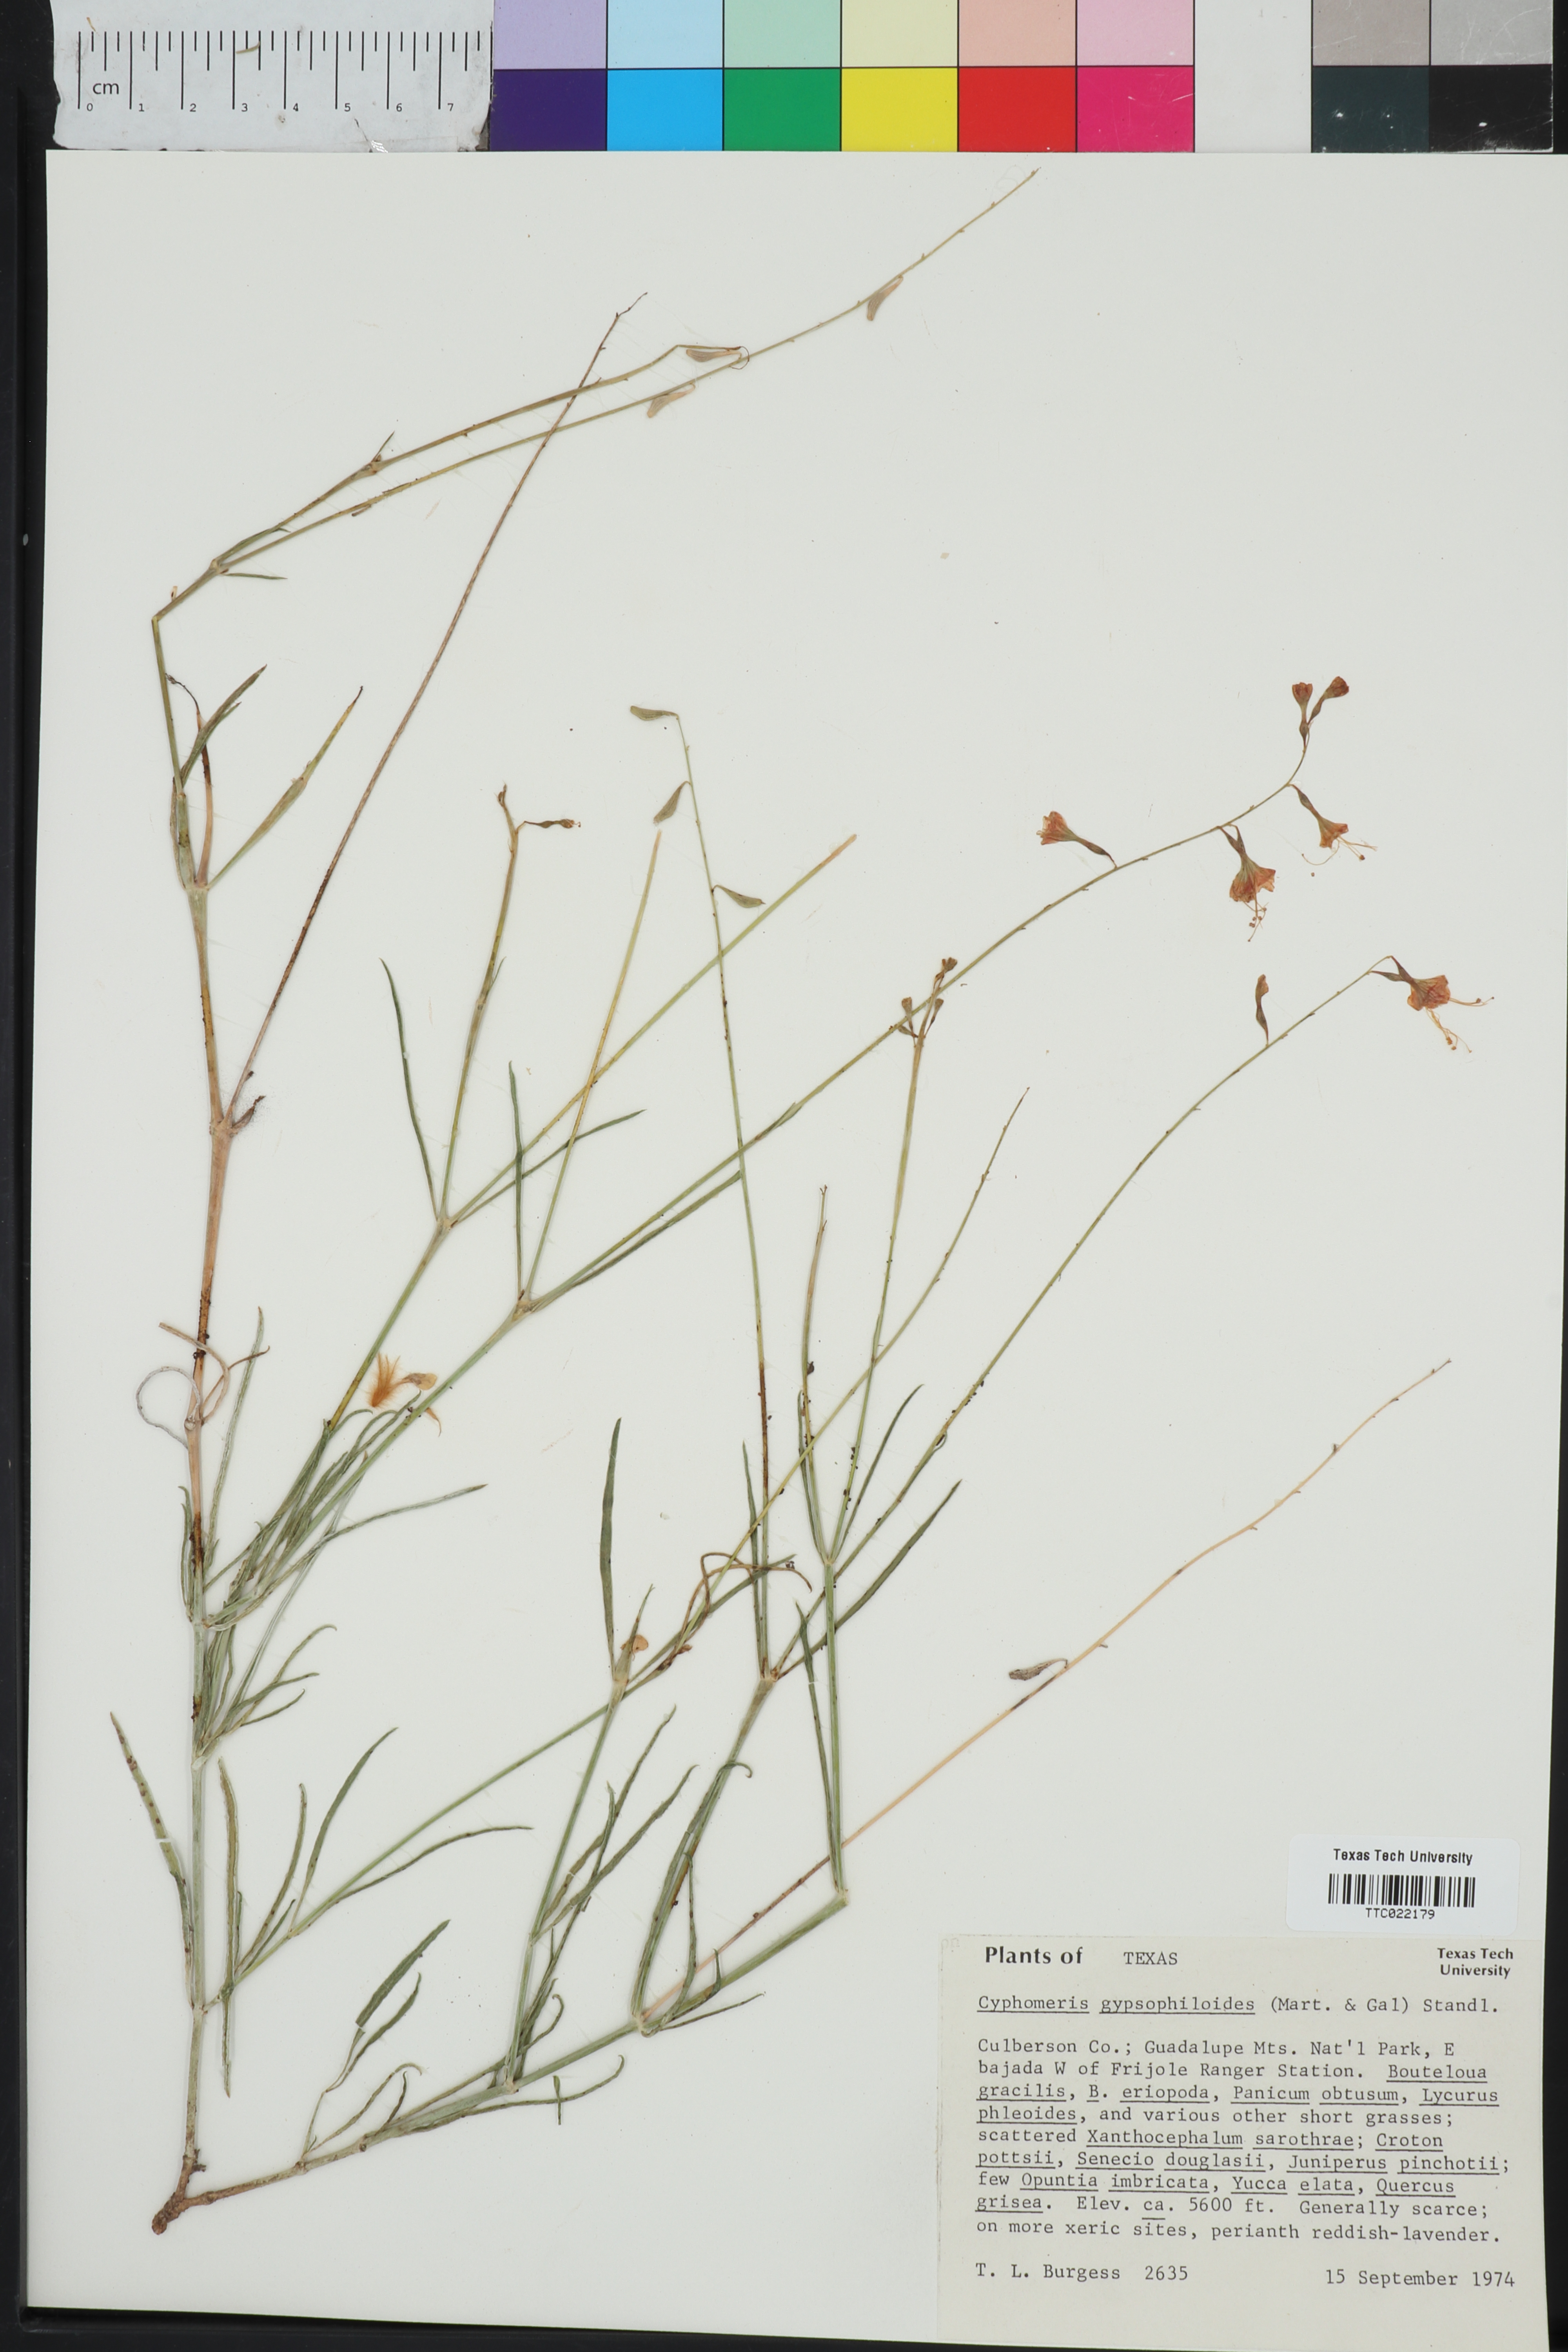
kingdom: Plantae
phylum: Tracheophyta
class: Magnoliopsida
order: Caryophyllales
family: Nyctaginaceae
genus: Cyphomeris
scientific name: Cyphomeris gypsophiloides
